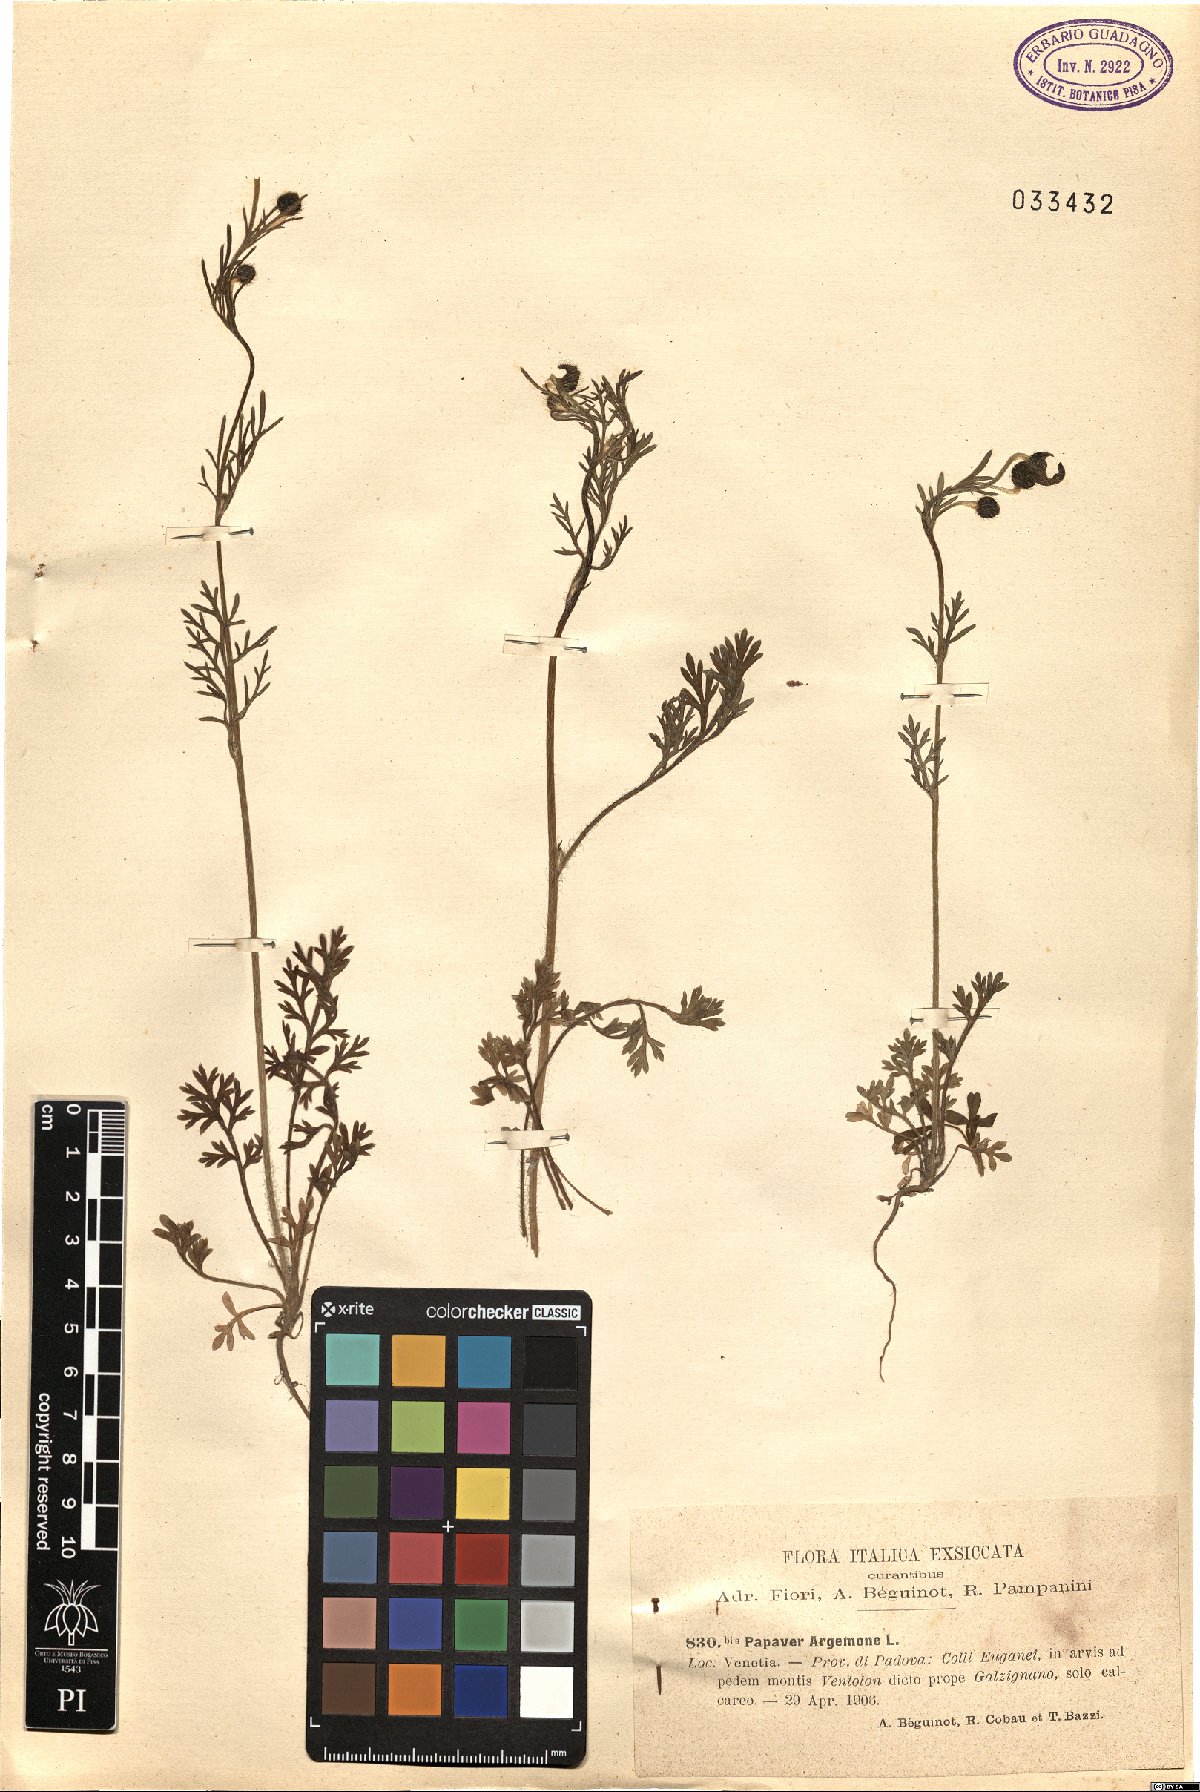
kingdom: Plantae
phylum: Tracheophyta
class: Magnoliopsida
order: Ranunculales
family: Papaveraceae
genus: Roemeria
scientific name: Roemeria argemone
